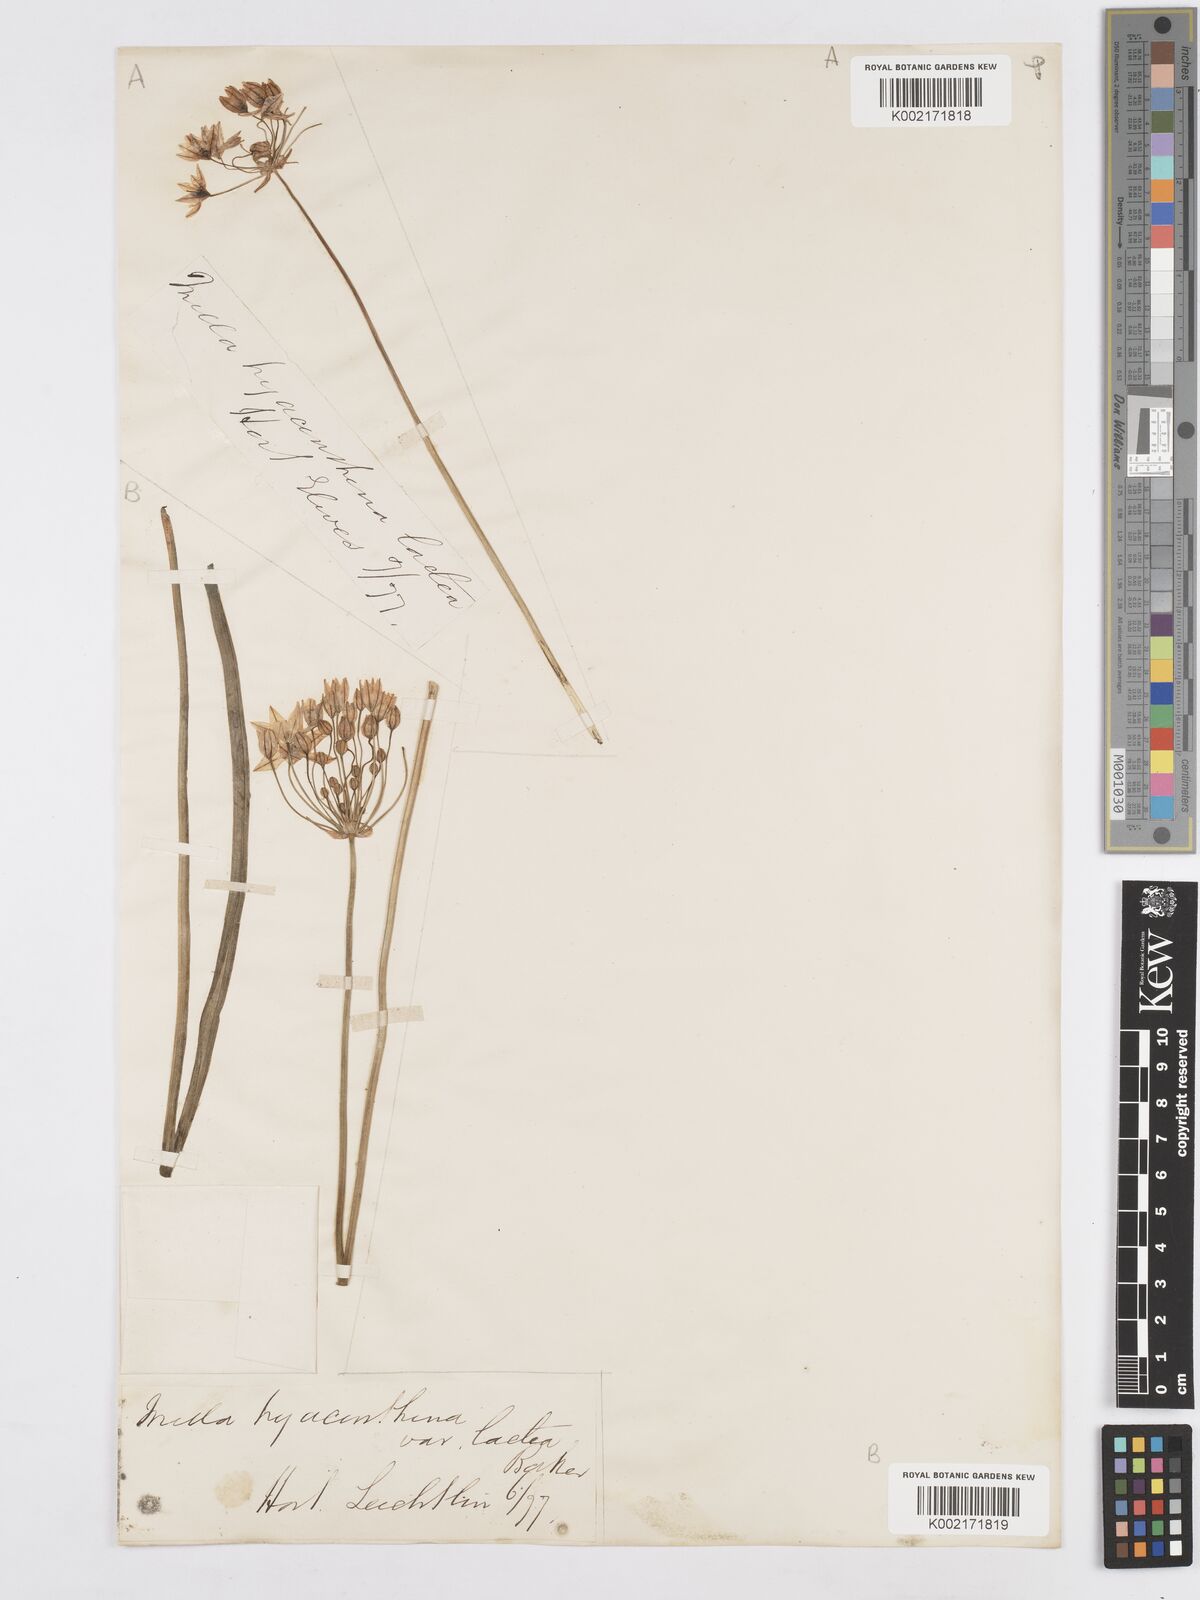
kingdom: Plantae
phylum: Tracheophyta
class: Liliopsida
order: Asparagales
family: Asparagaceae
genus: Triteleia
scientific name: Triteleia hyacinthina
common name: White brodiaea
